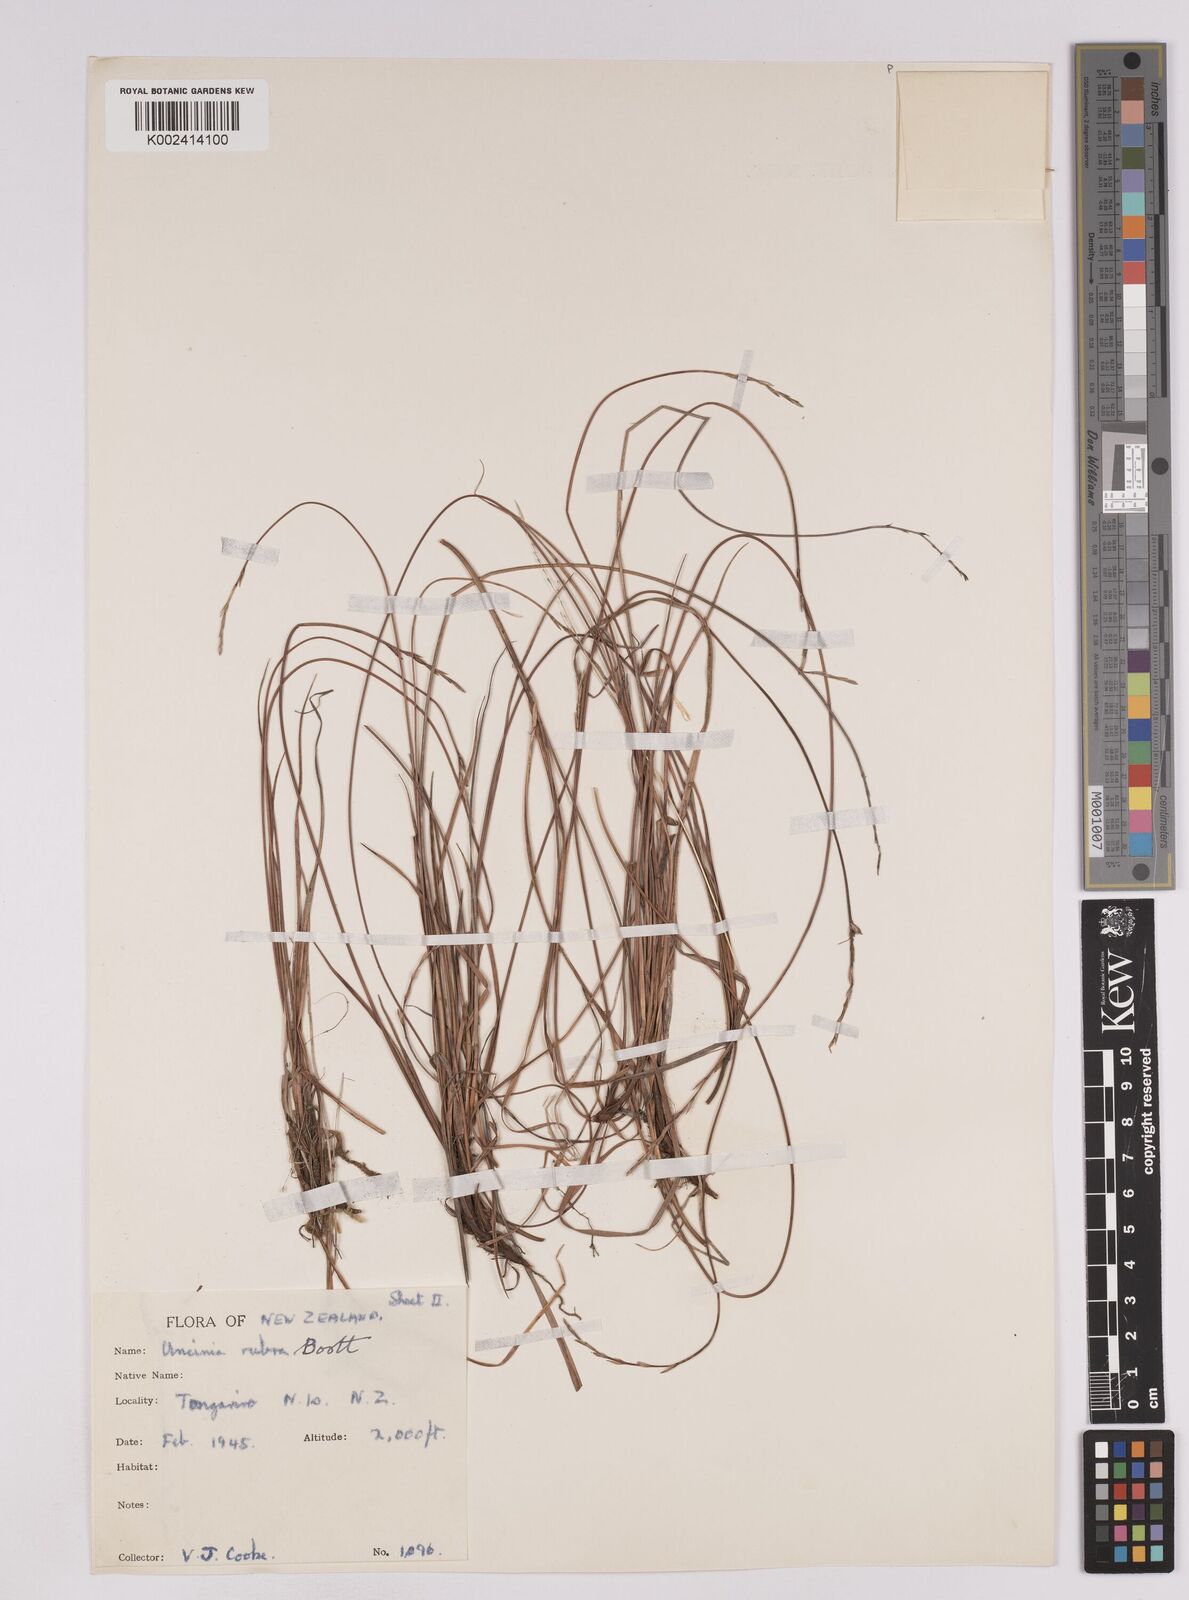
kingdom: Plantae
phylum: Tracheophyta
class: Liliopsida
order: Poales
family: Cyperaceae
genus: Carex
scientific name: Carex punicea
